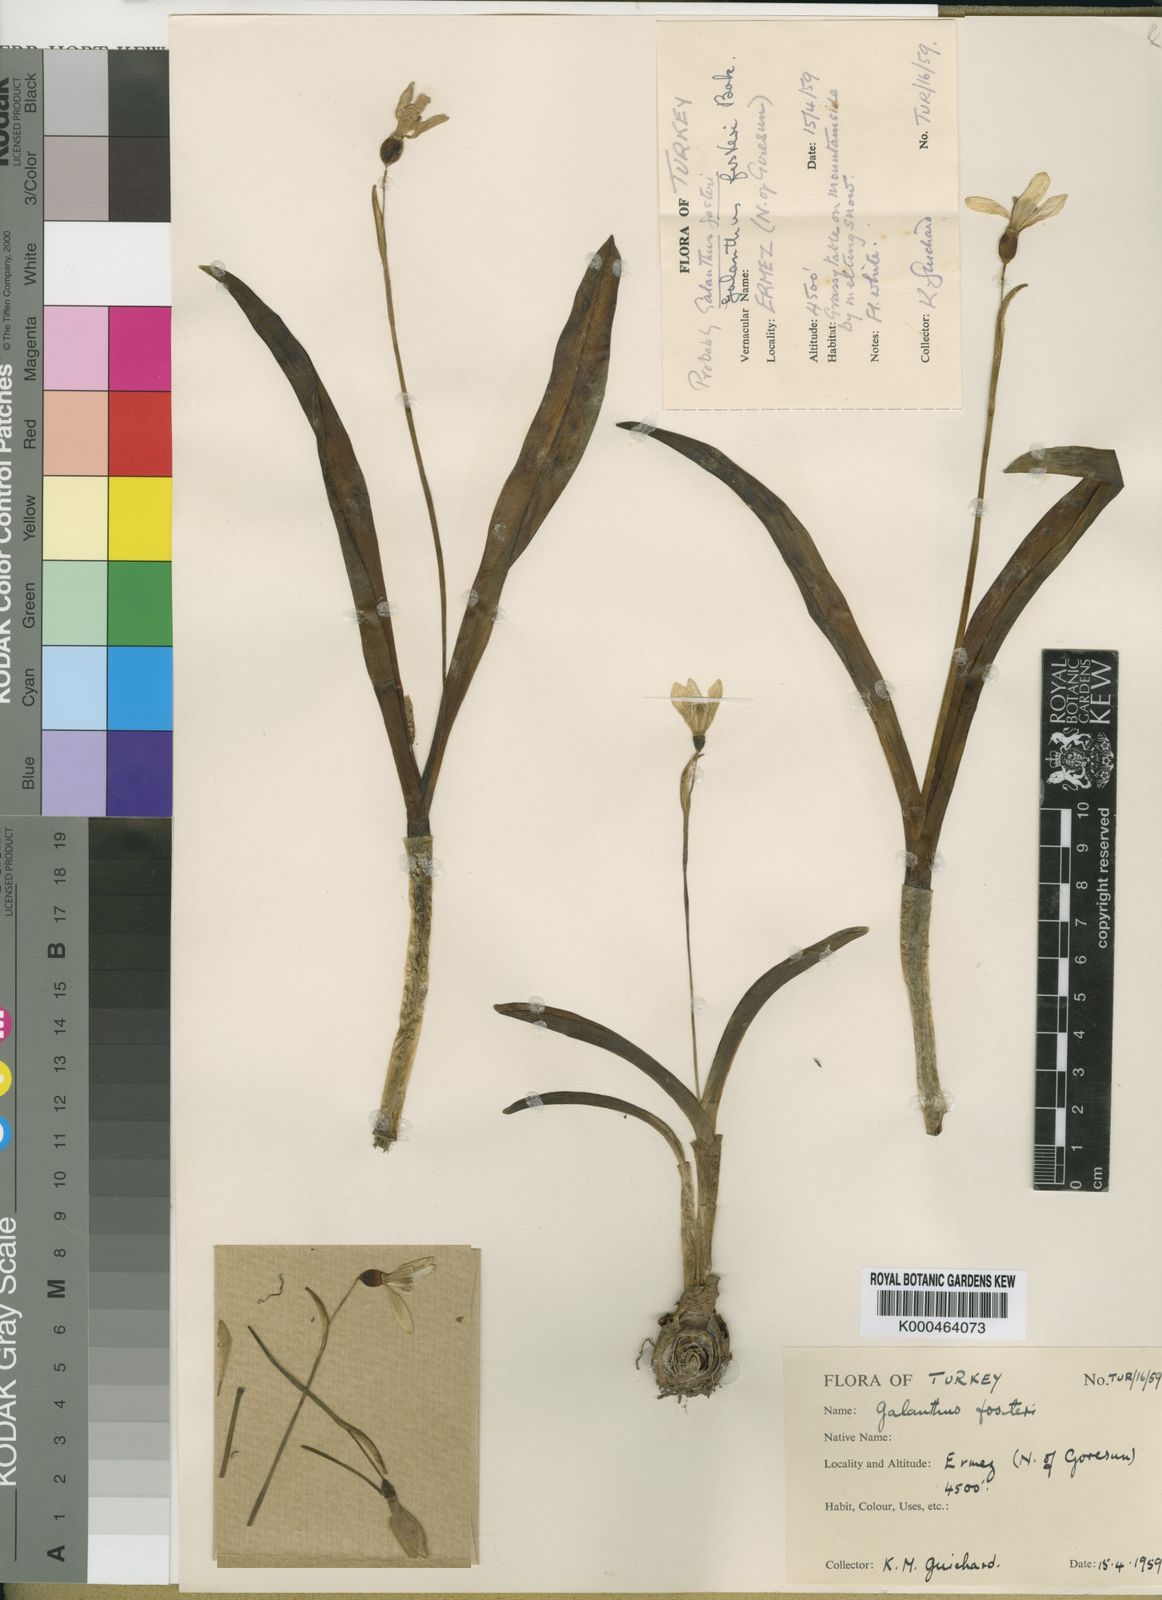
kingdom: Plantae
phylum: Tracheophyta
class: Liliopsida
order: Asparagales
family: Amaryllidaceae
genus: Galanthus
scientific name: Galanthus fosteri
